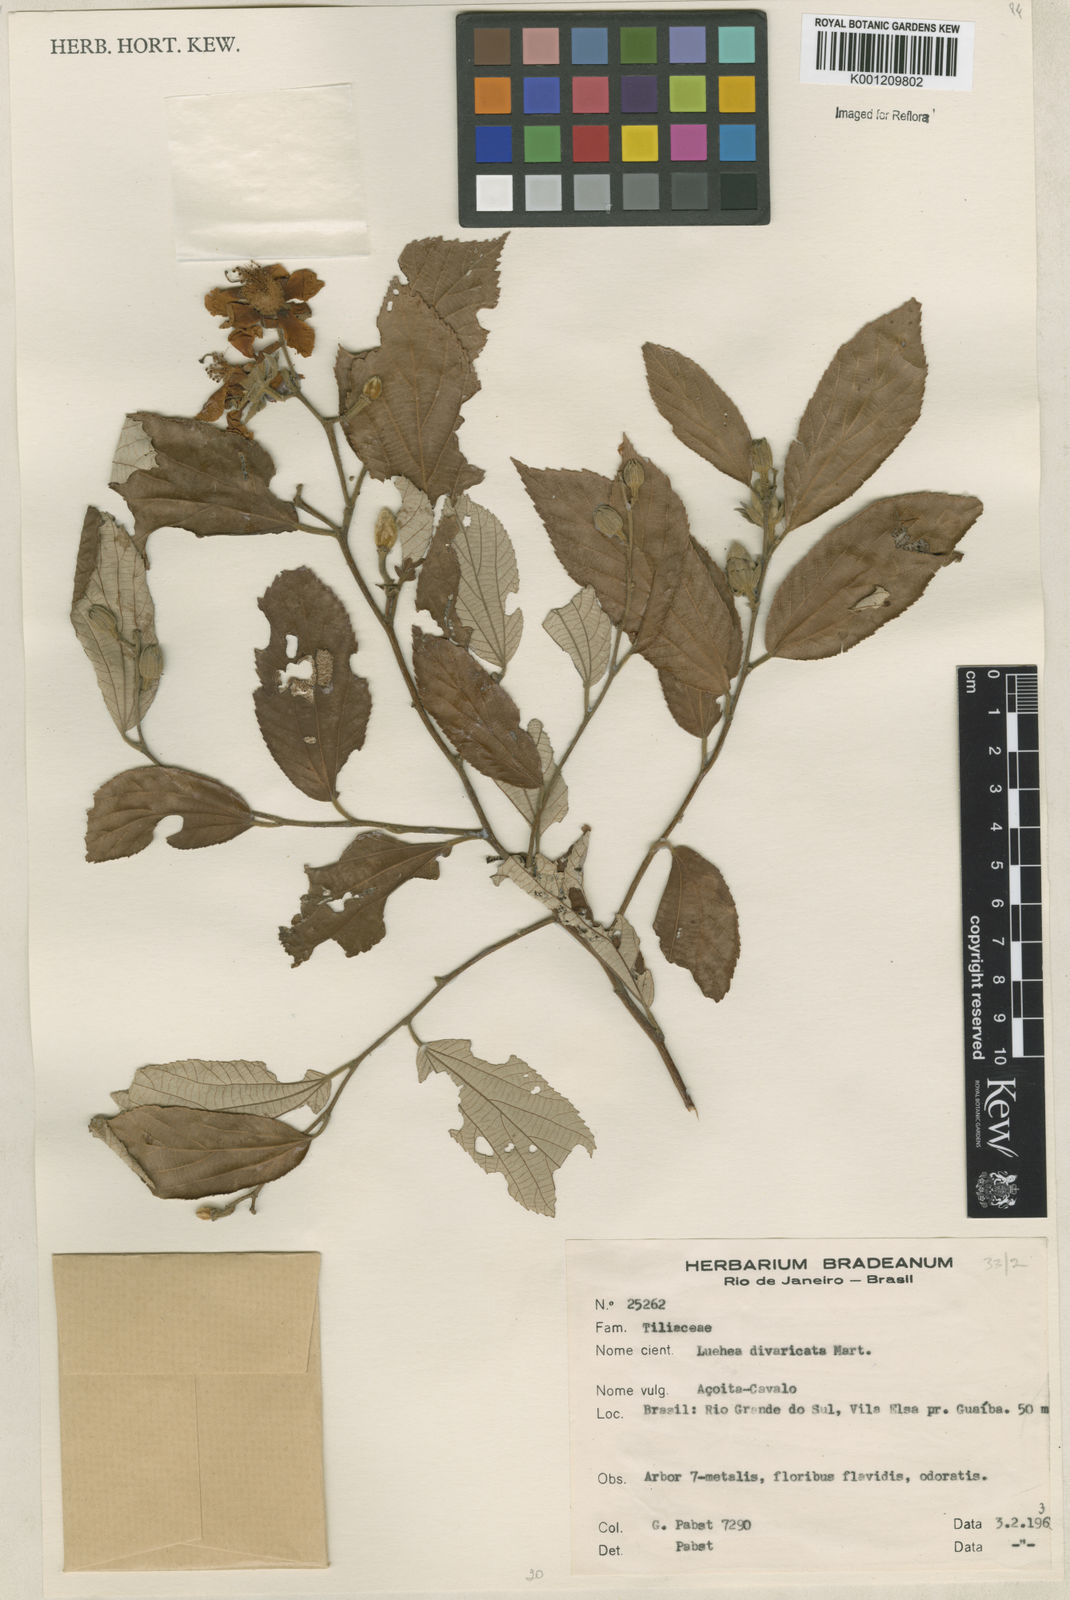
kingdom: Plantae
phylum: Tracheophyta
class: Magnoliopsida
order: Malvales
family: Malvaceae
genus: Luehea
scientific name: Luehea divaricata
